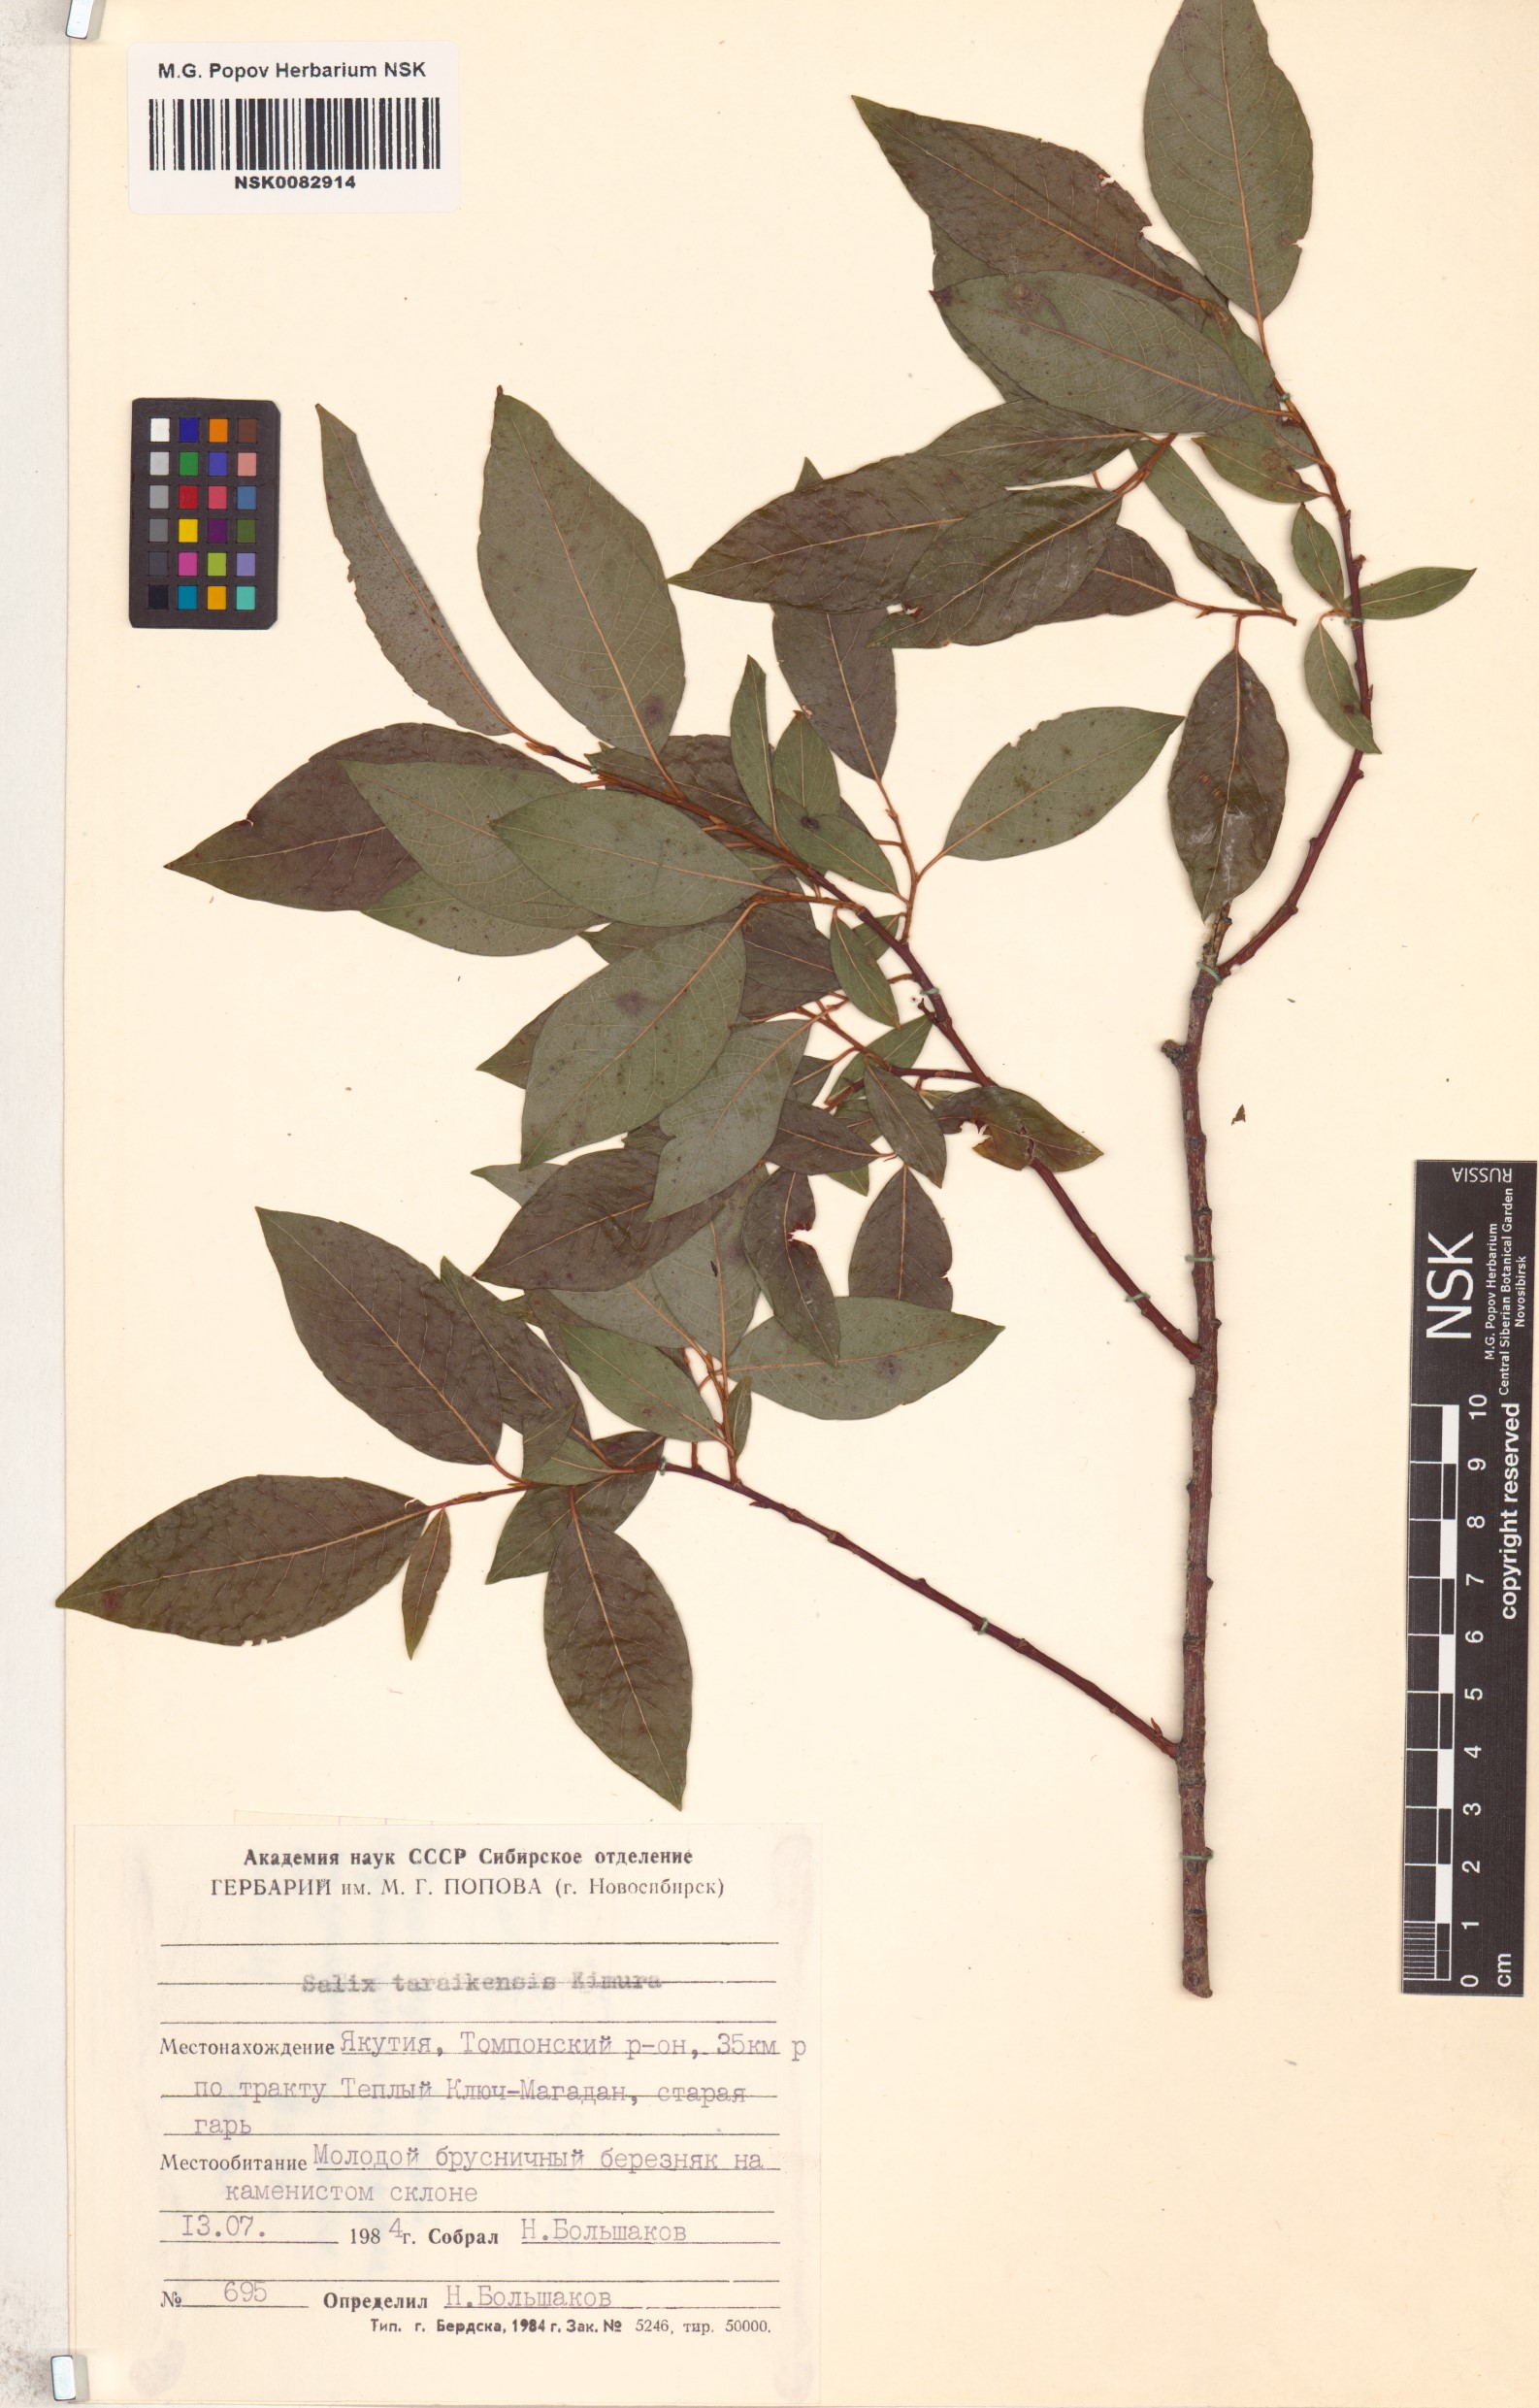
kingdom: Plantae
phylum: Tracheophyta
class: Magnoliopsida
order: Malpighiales
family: Salicaceae
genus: Salix
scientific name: Salix taraikensis
